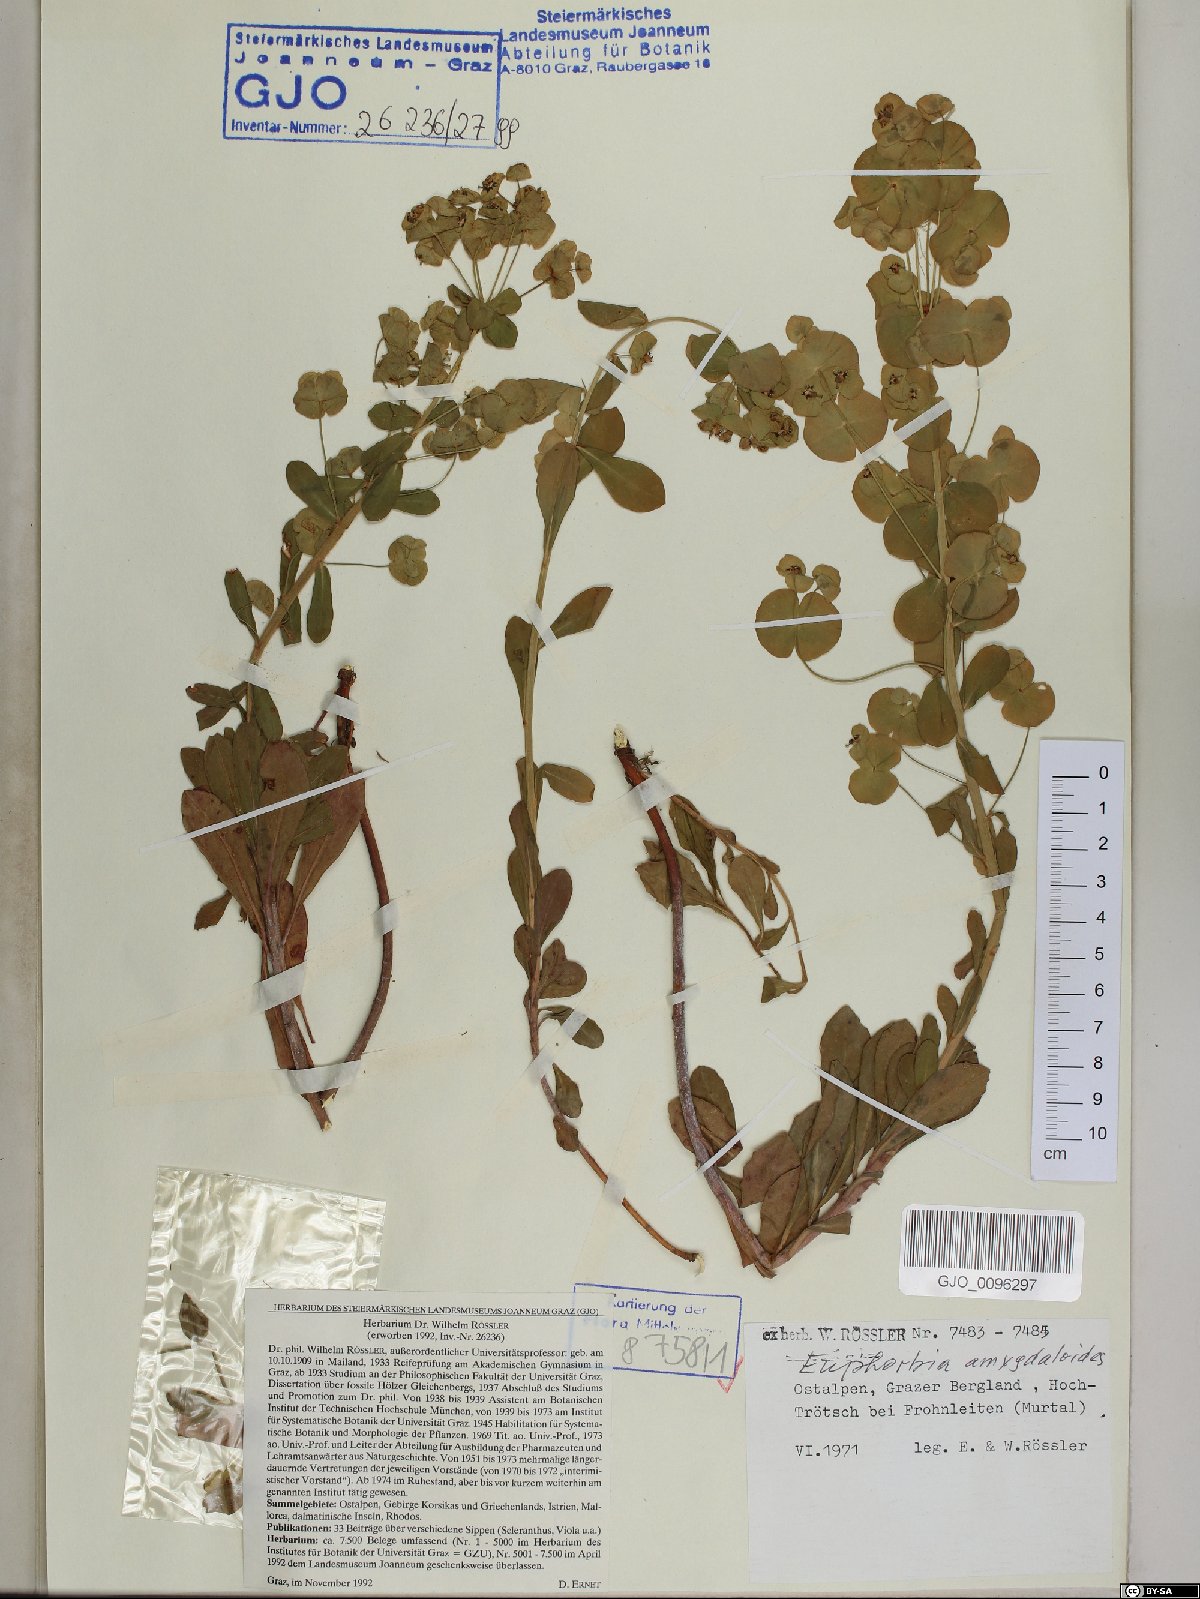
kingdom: Plantae
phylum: Tracheophyta
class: Magnoliopsida
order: Malpighiales
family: Euphorbiaceae
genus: Euphorbia
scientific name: Euphorbia amygdaloides
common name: Wood spurge
